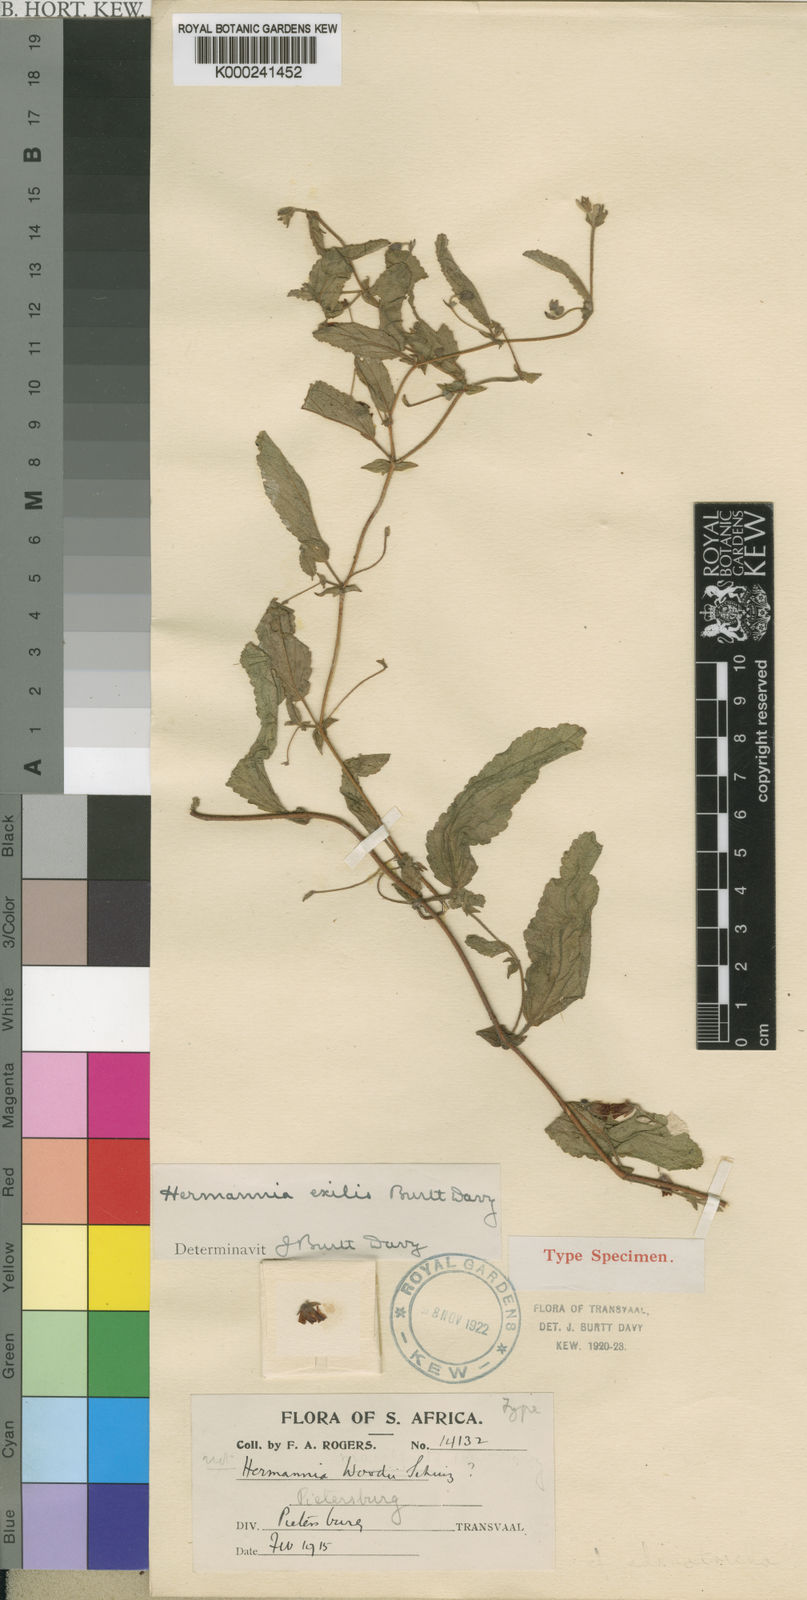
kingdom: Plantae
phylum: Tracheophyta
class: Magnoliopsida
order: Malvales
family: Malvaceae
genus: Hermannia
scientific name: Hermannia stellulata
